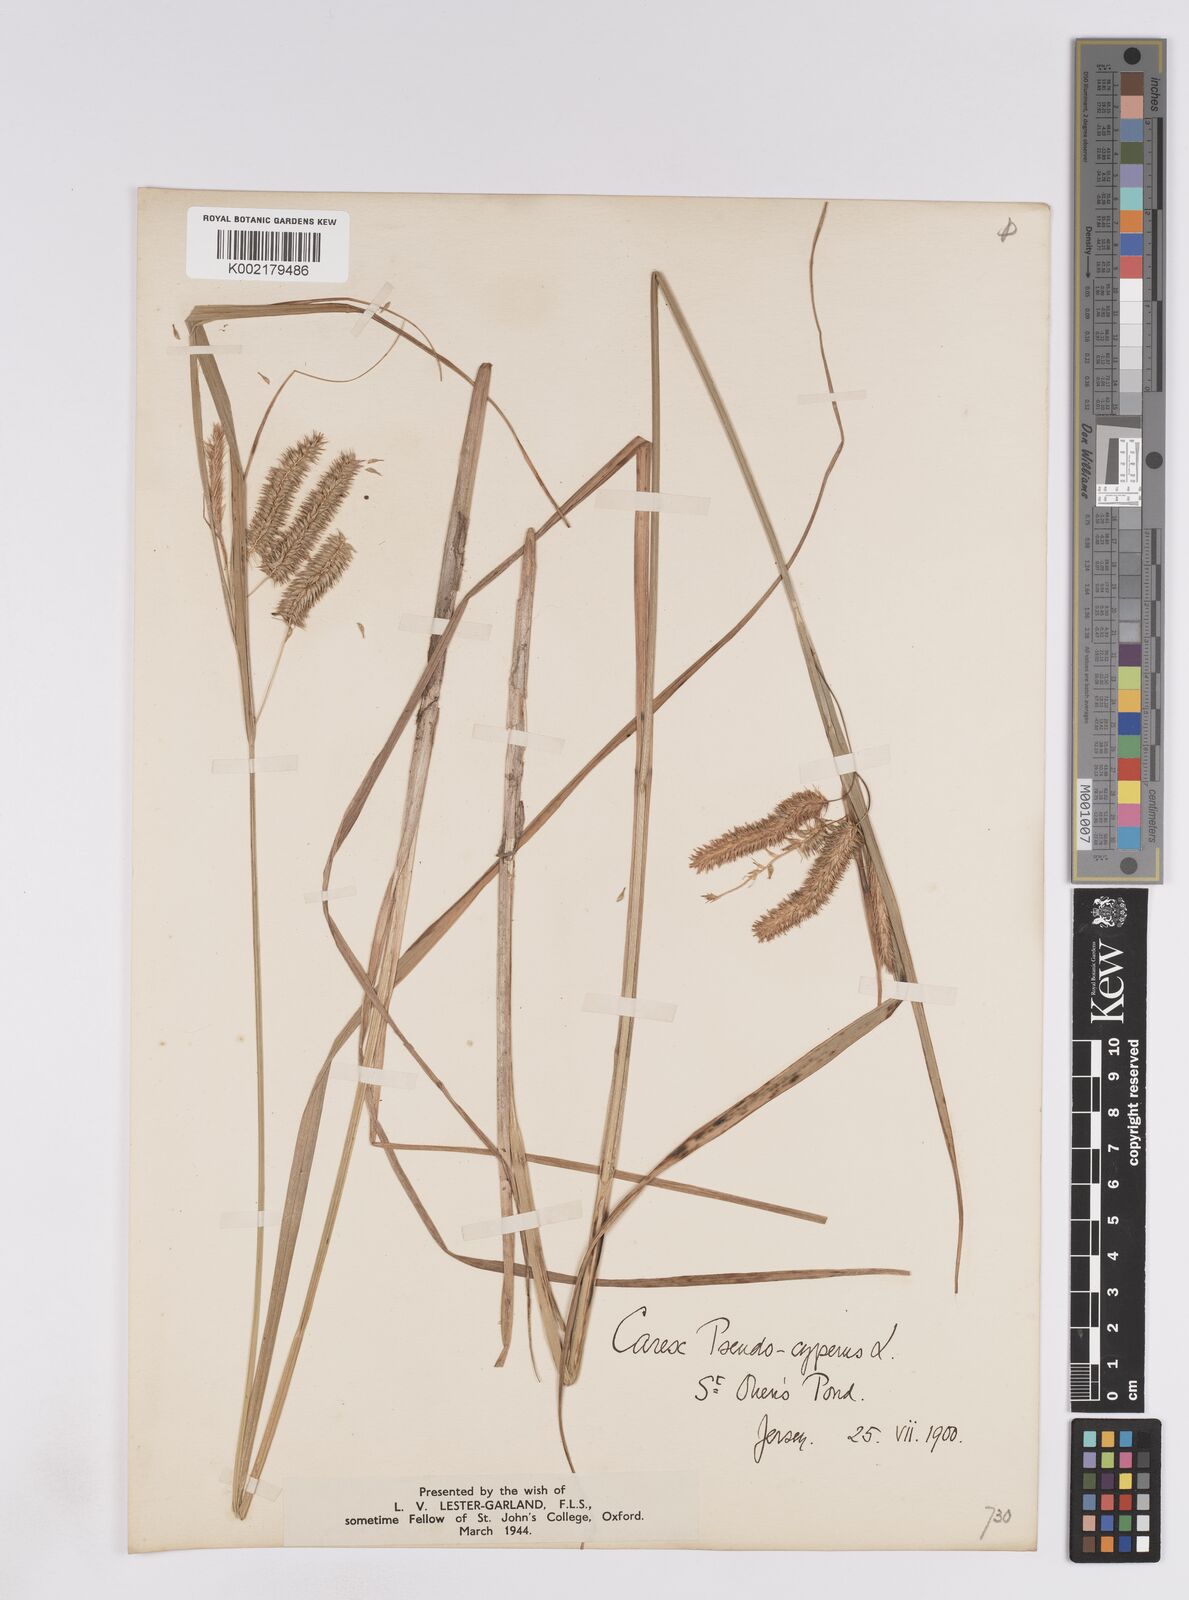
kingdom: Plantae
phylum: Tracheophyta
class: Liliopsida
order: Poales
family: Cyperaceae
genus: Carex
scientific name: Carex pseudocyperus
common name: Cyperus sedge
